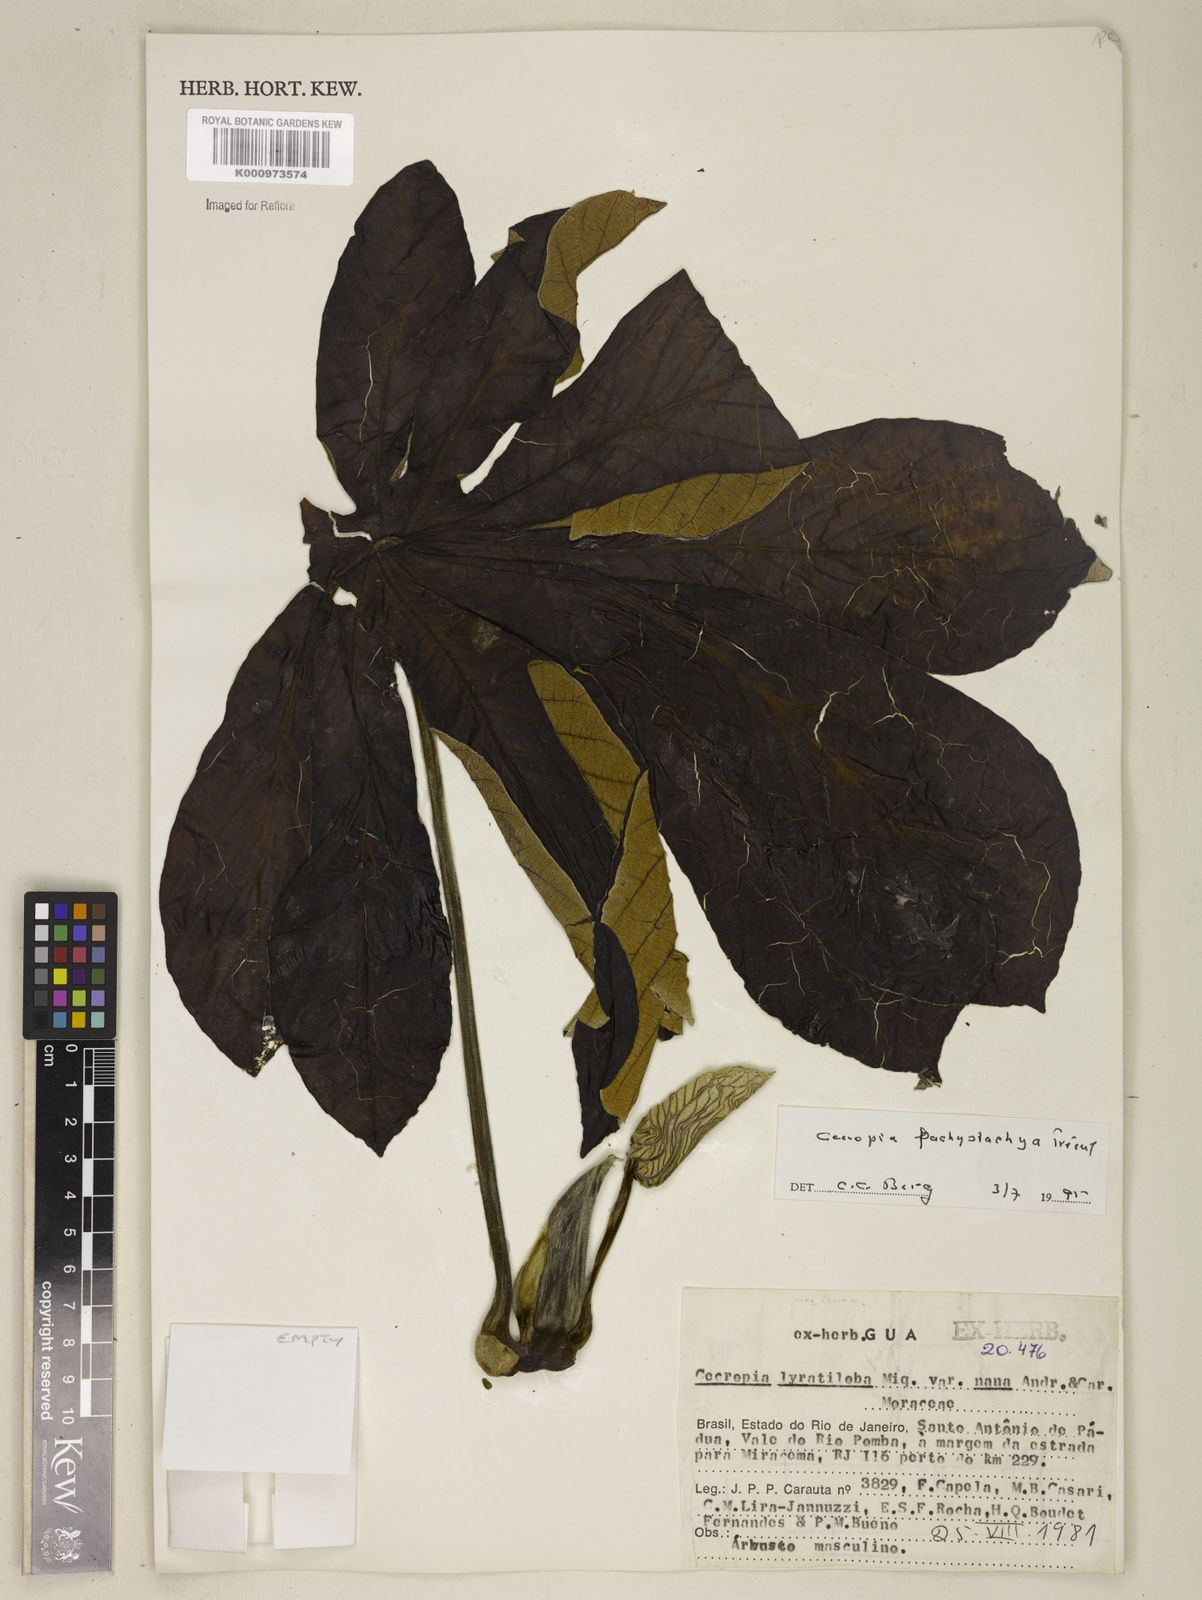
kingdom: Plantae
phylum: Tracheophyta
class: Magnoliopsida
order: Rosales
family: Urticaceae
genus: Cecropia
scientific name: Cecropia
